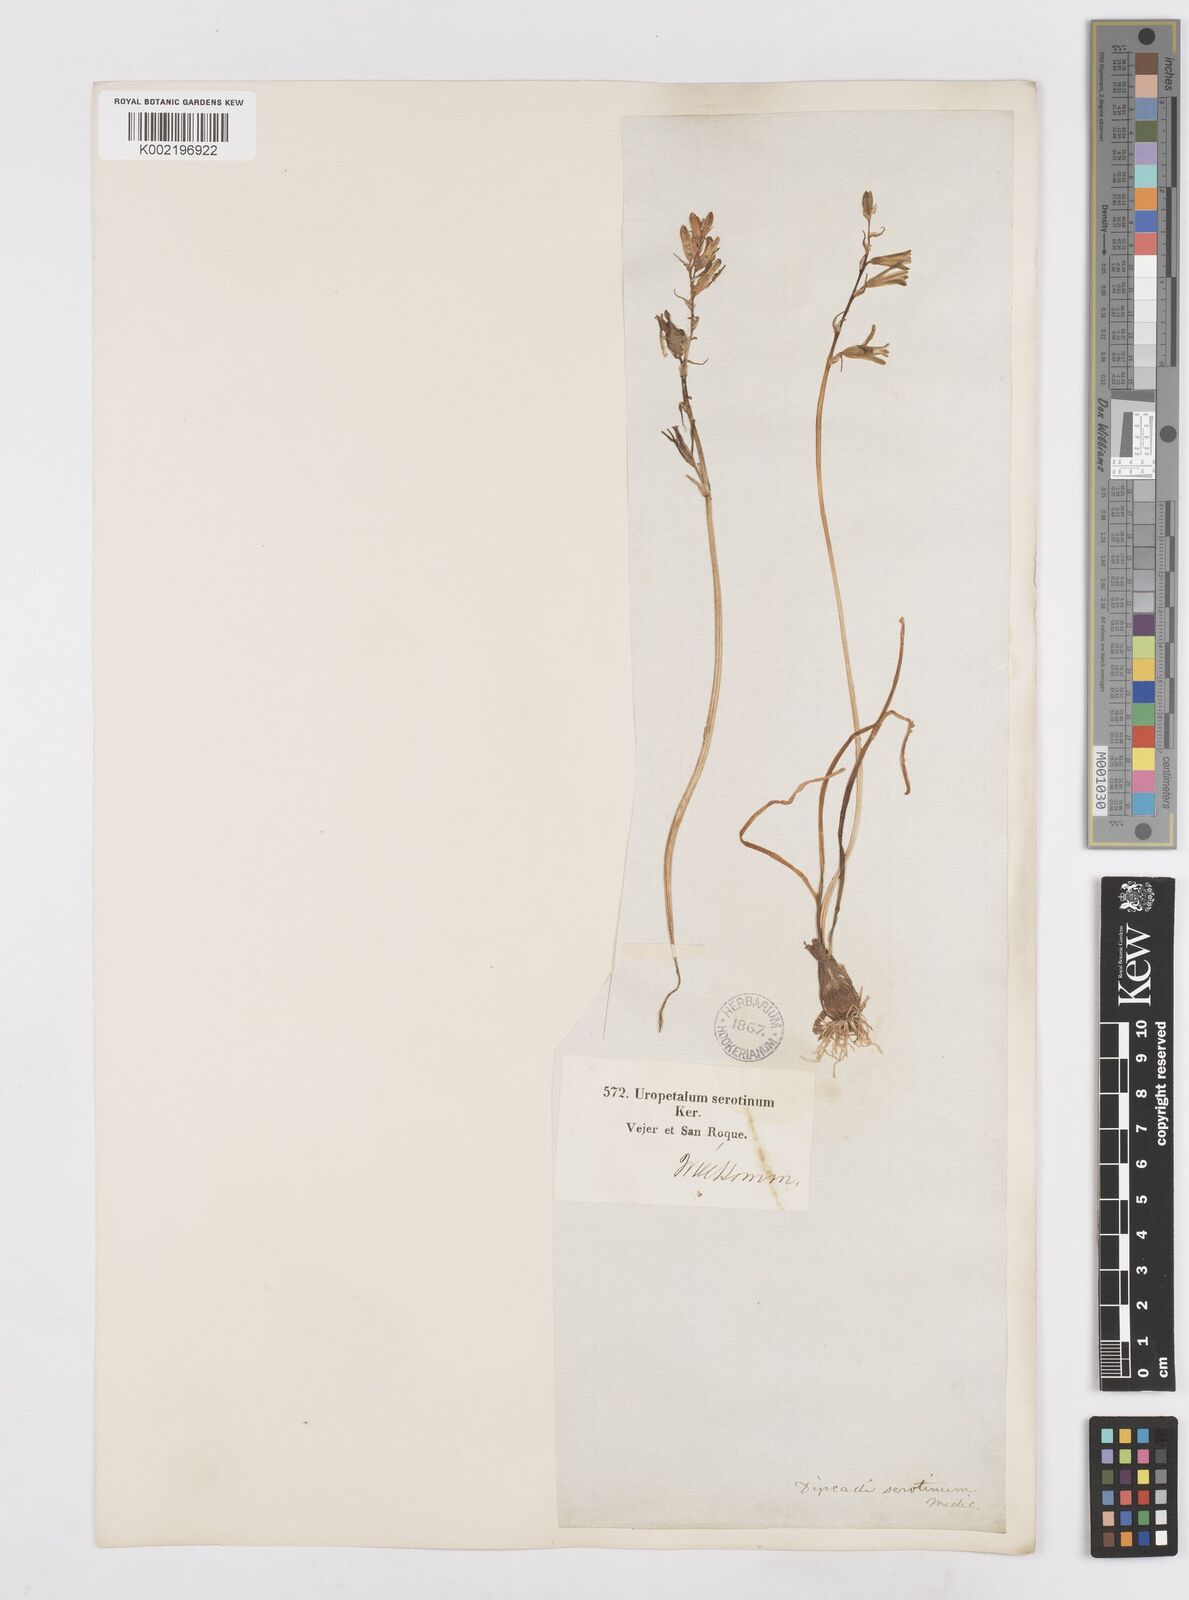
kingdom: Plantae
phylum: Tracheophyta
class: Liliopsida
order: Asparagales
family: Asparagaceae
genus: Dipcadi
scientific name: Dipcadi serotinum
